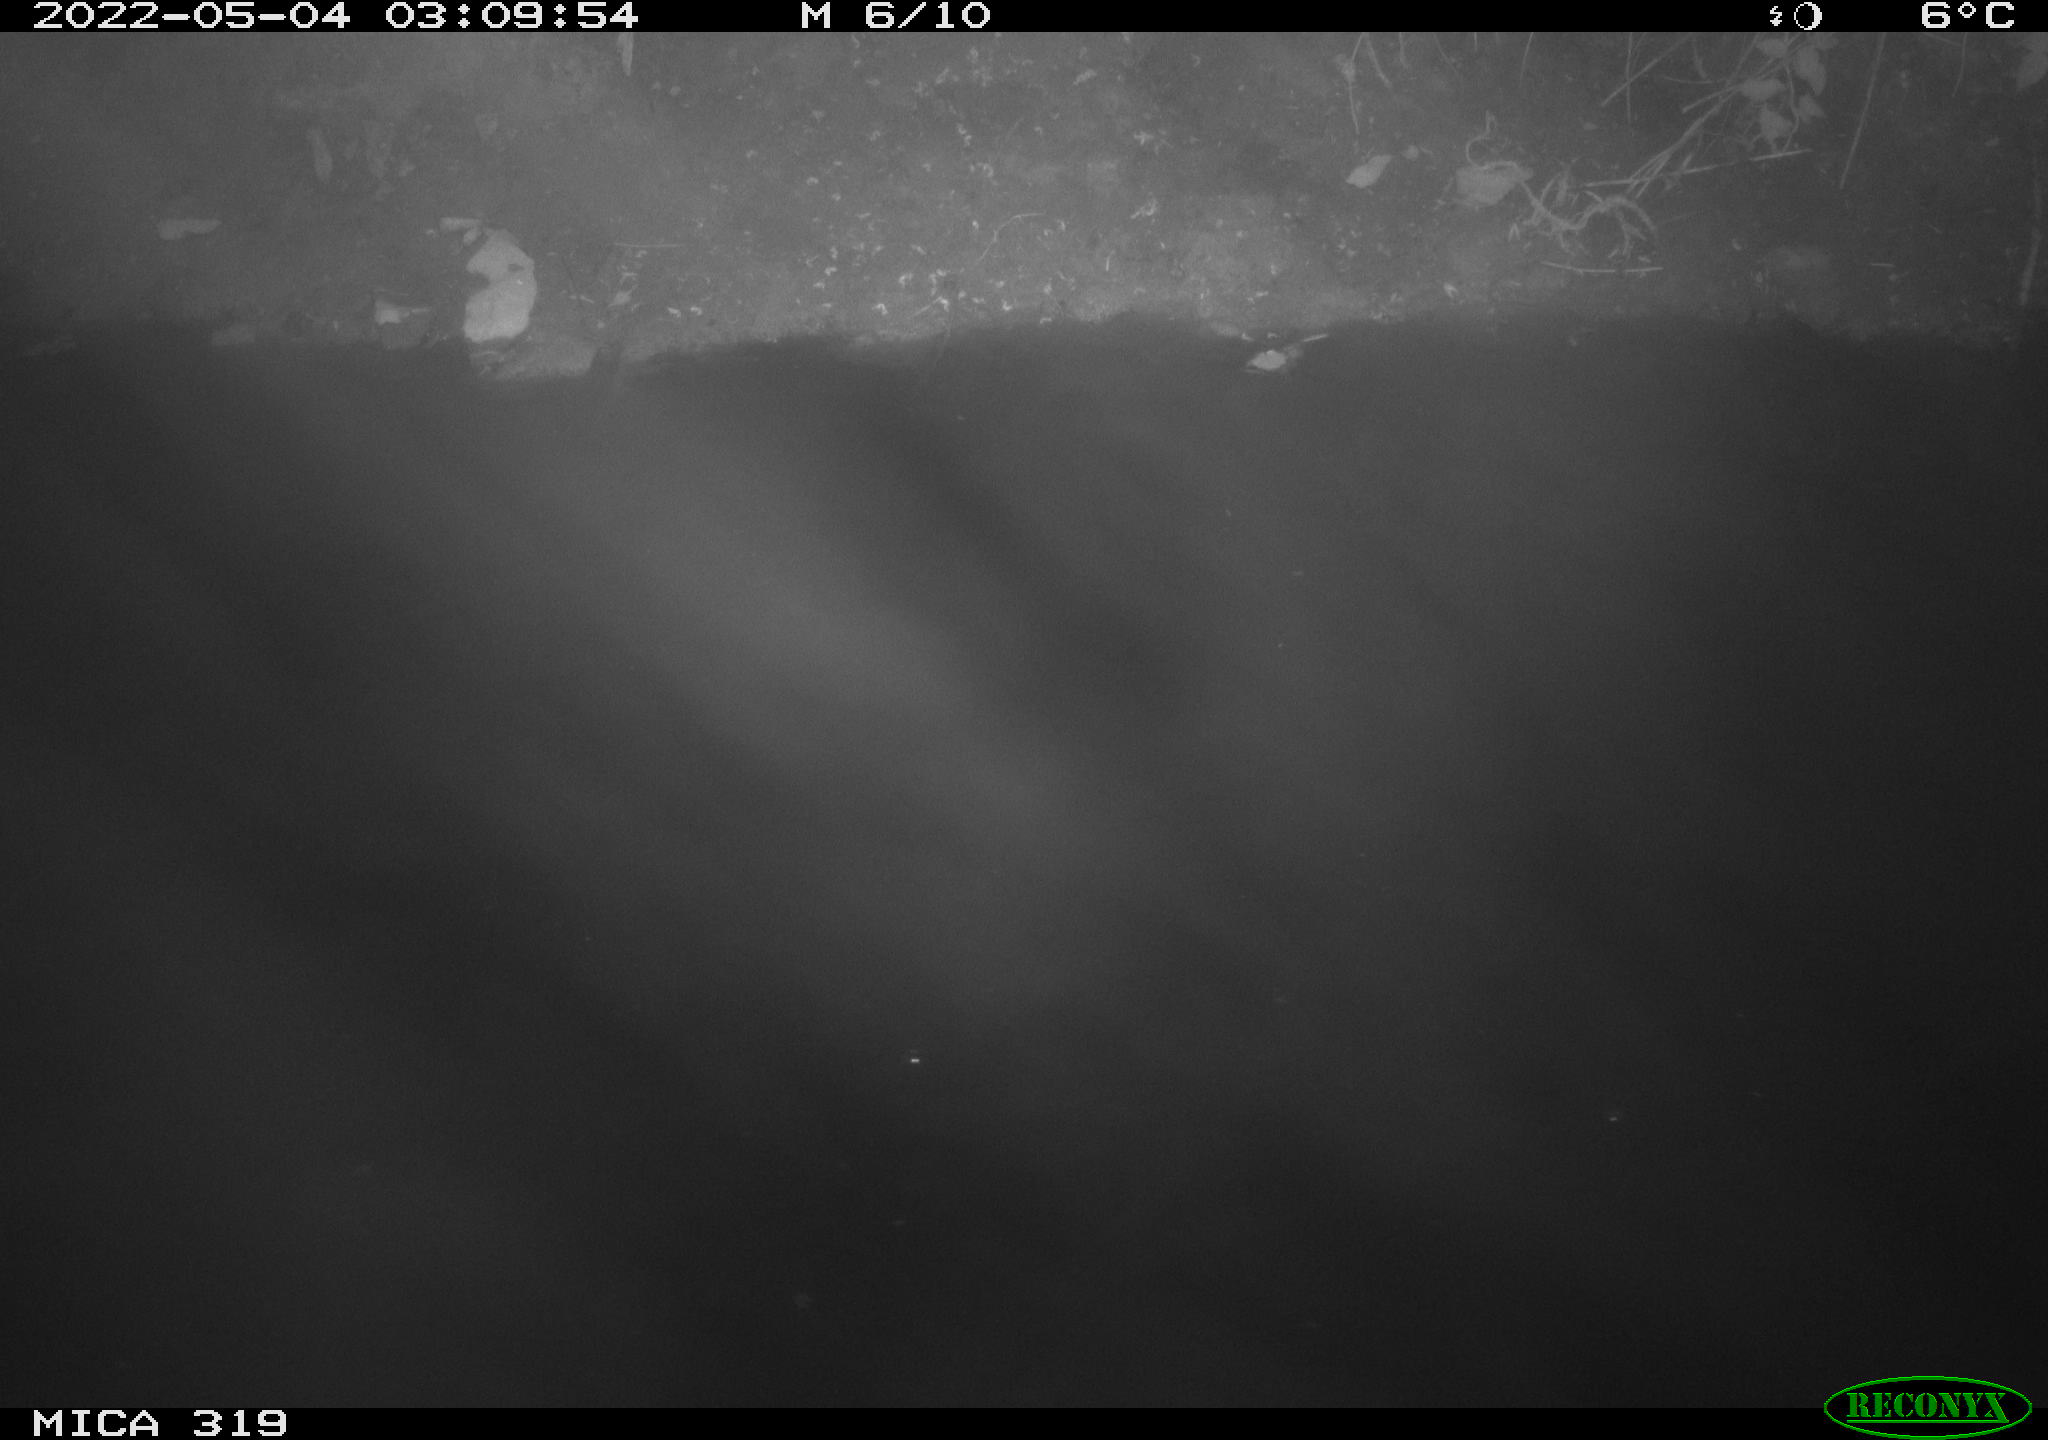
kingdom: Animalia
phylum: Chordata
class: Aves
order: Anseriformes
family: Anatidae
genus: Anas
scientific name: Anas platyrhynchos
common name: Mallard
